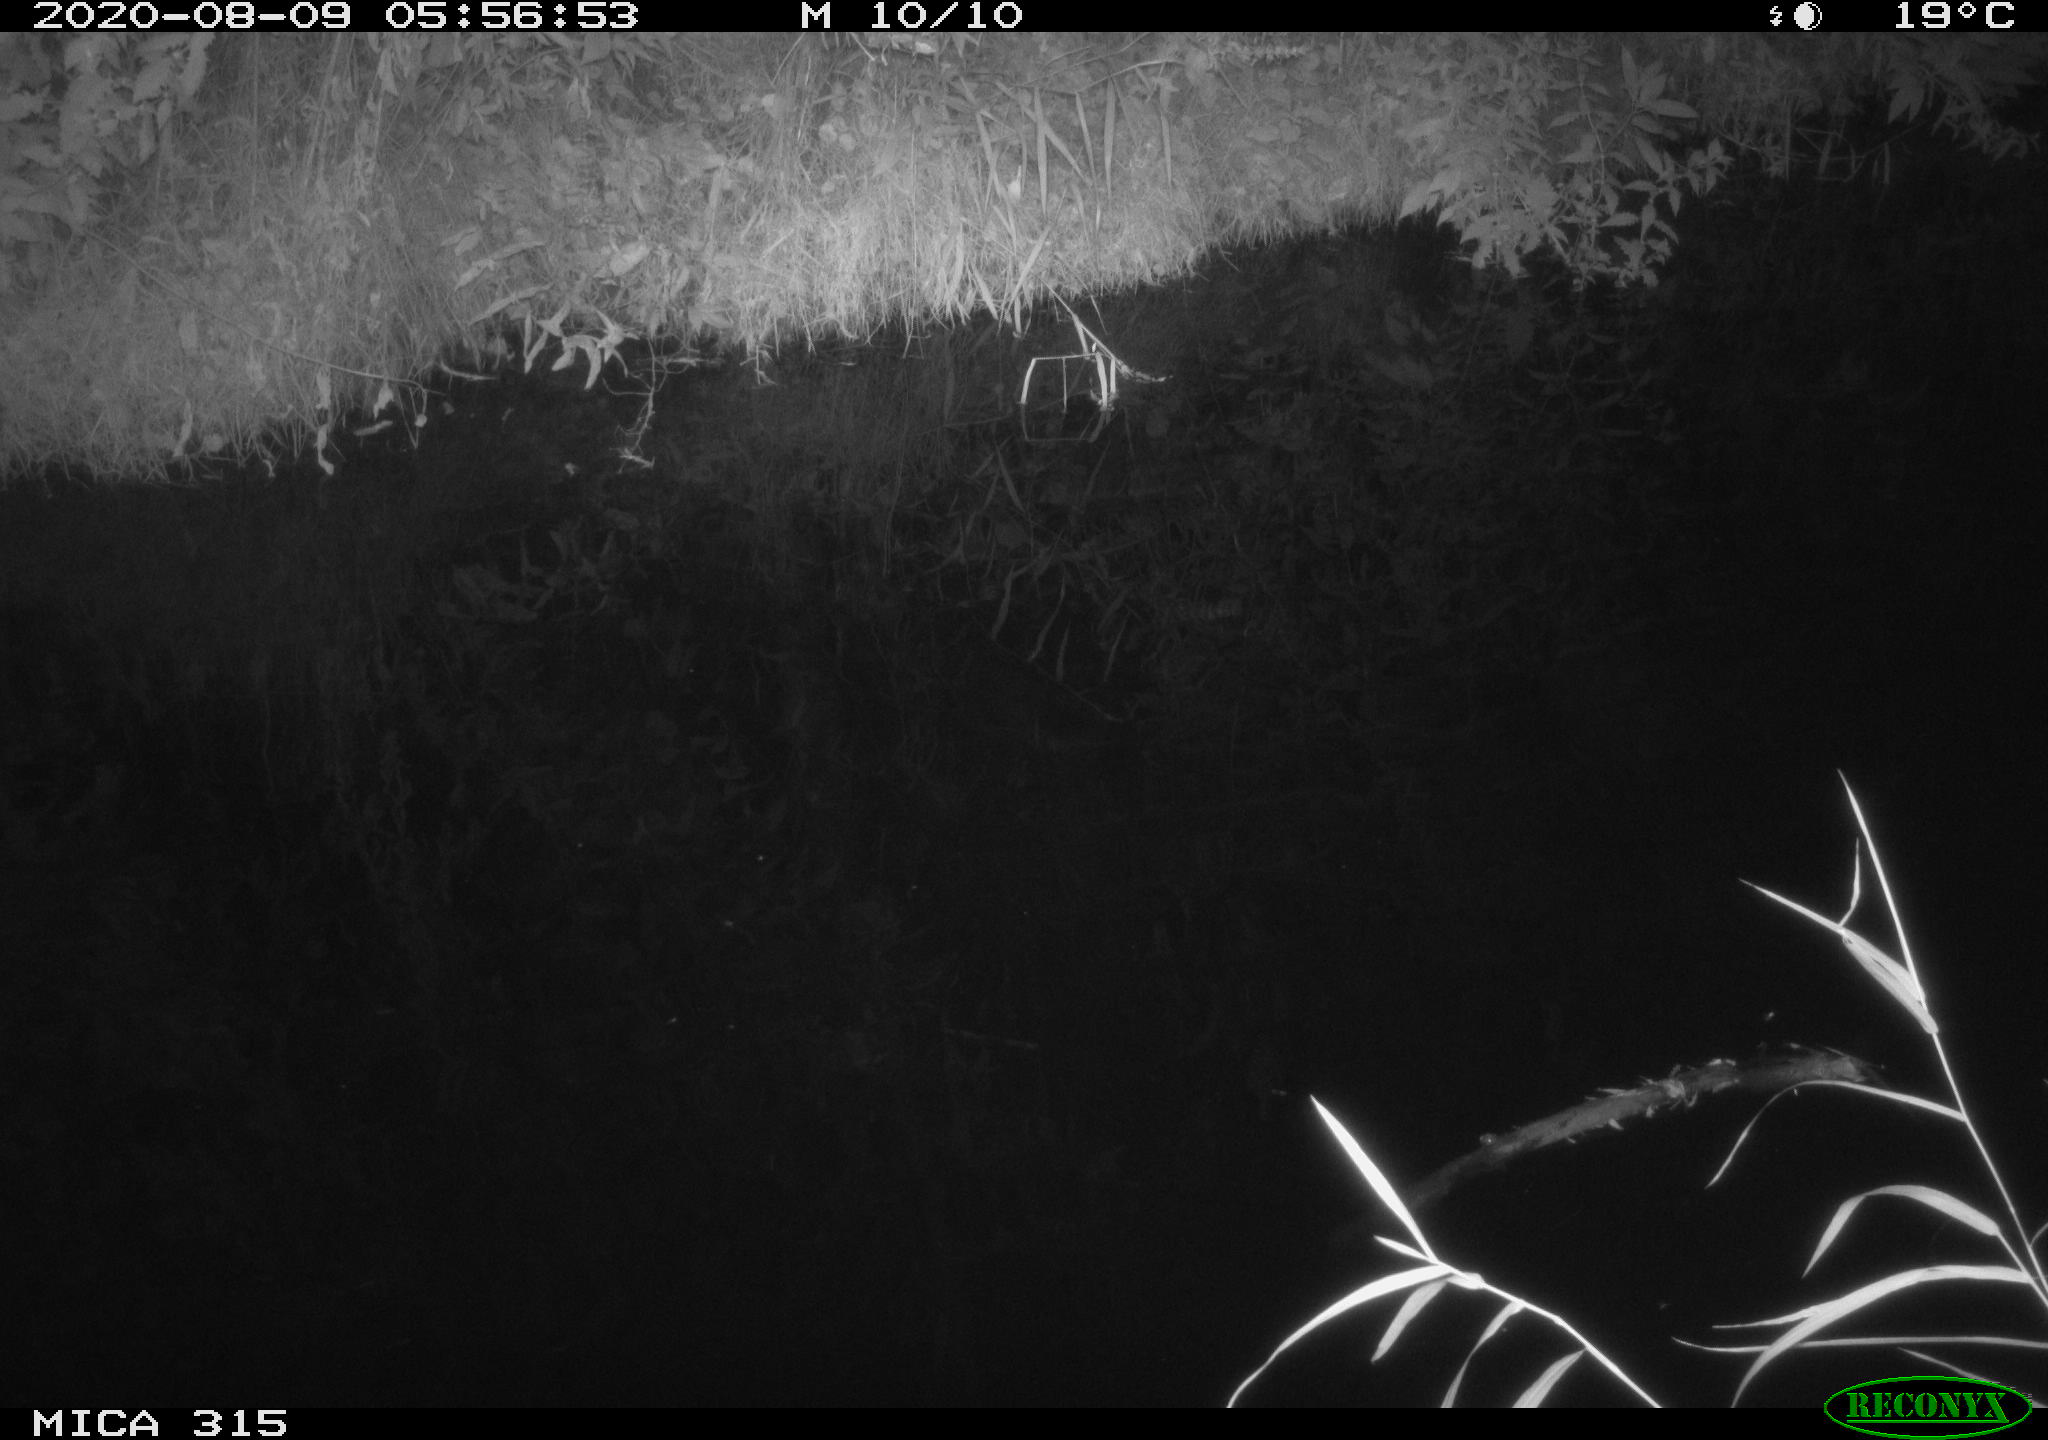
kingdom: Animalia
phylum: Chordata
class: Aves
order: Anseriformes
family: Anatidae
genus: Anas
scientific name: Anas platyrhynchos
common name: Mallard
